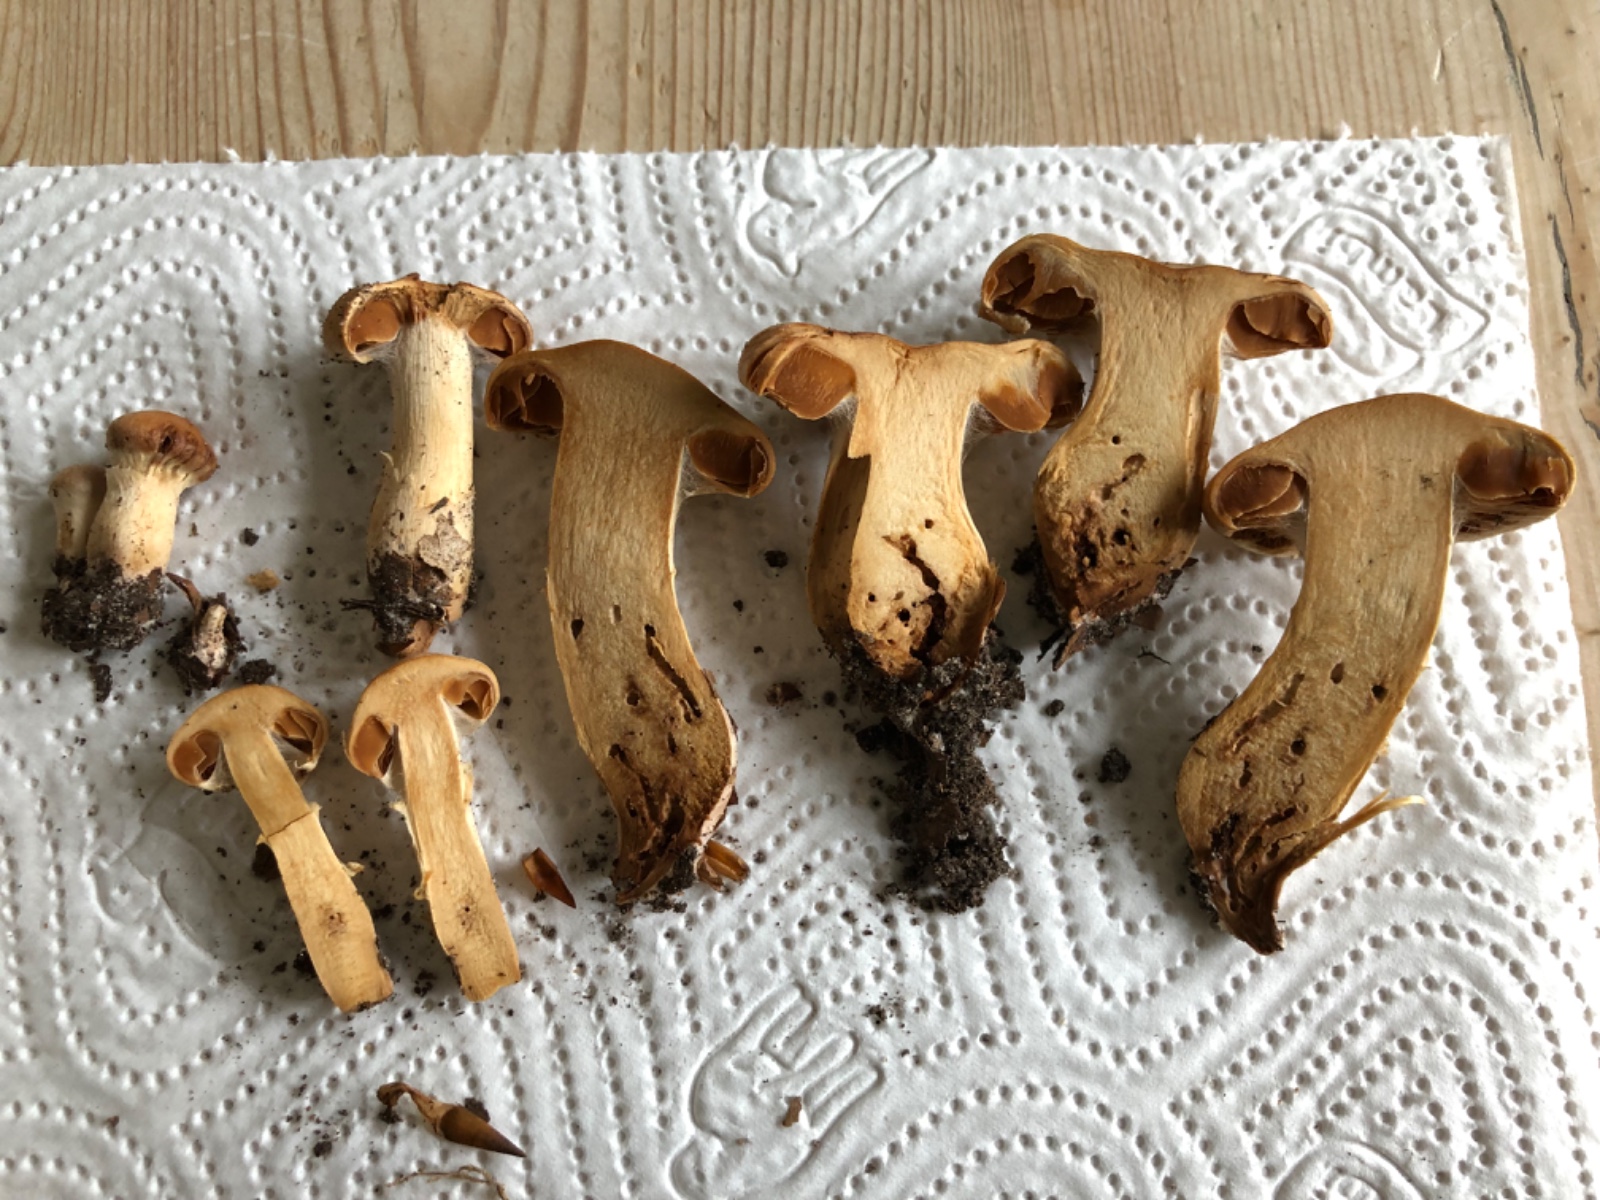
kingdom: Fungi
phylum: Basidiomycota
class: Agaricomycetes
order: Agaricales
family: Cortinariaceae
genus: Cortinarius
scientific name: Cortinarius
